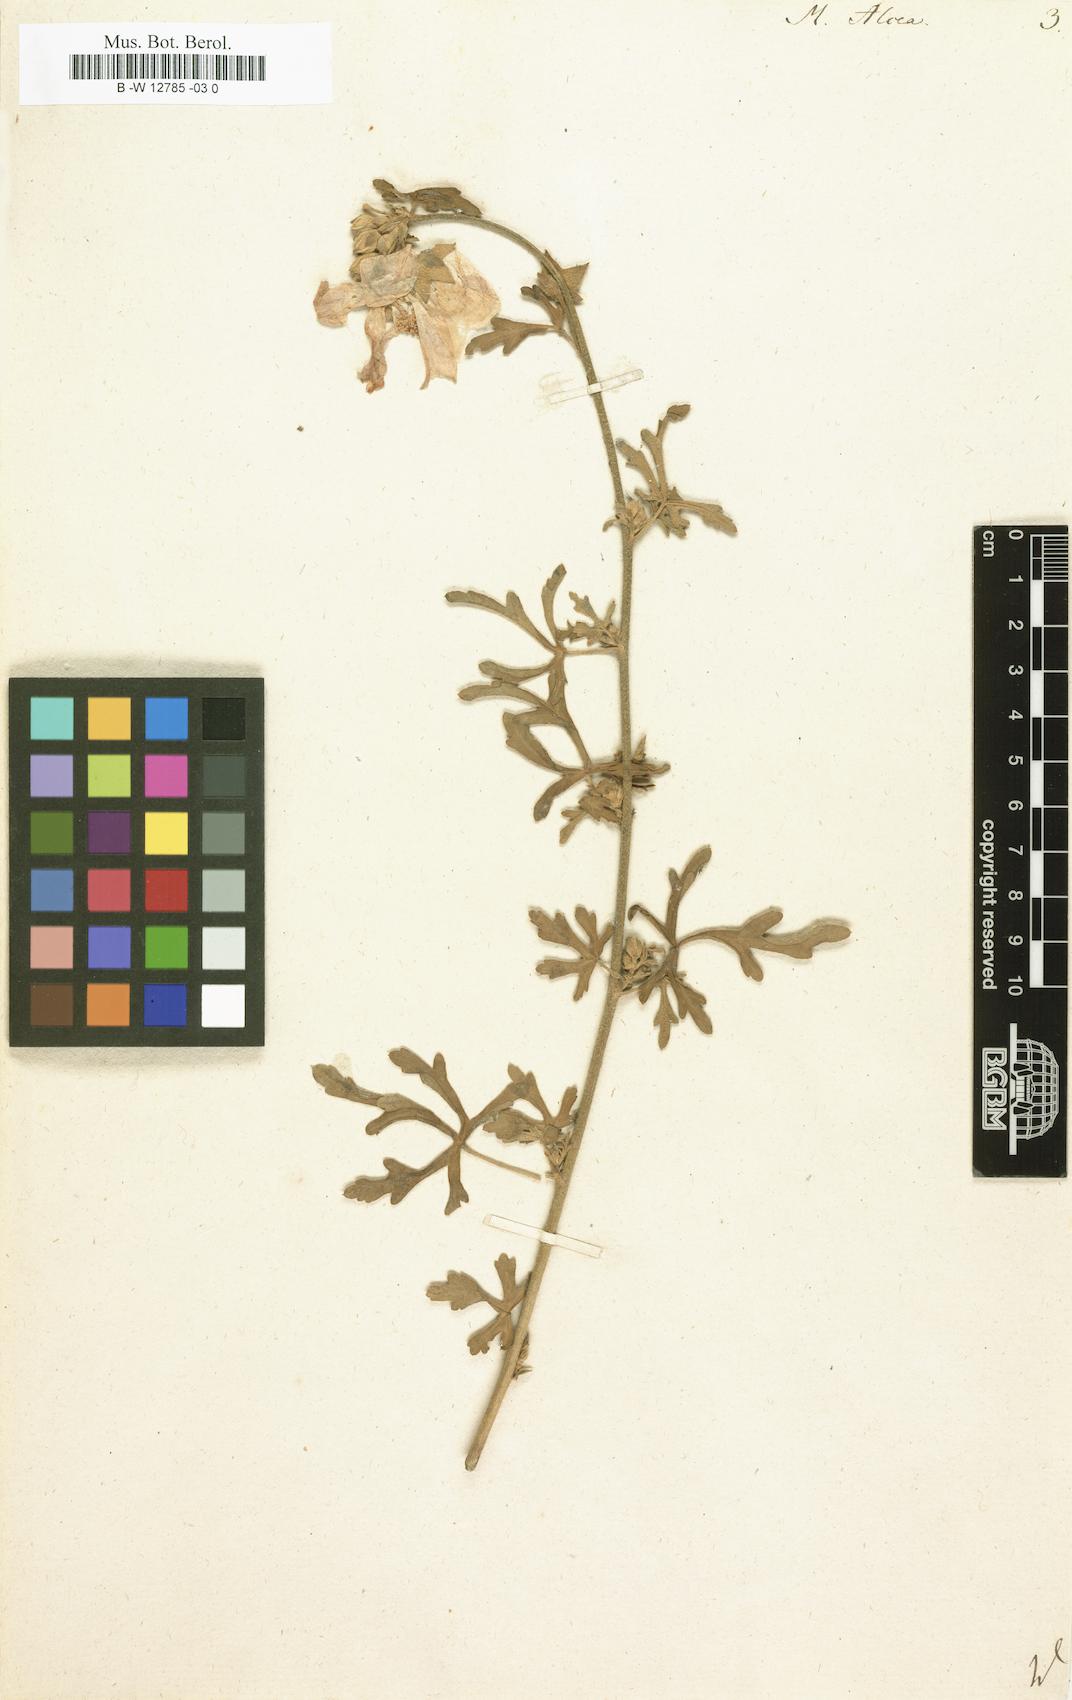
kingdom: Plantae
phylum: Tracheophyta
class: Magnoliopsida
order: Malvales
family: Malvaceae
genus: Malva
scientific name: Malva alcea
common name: Greater musk-mallow
